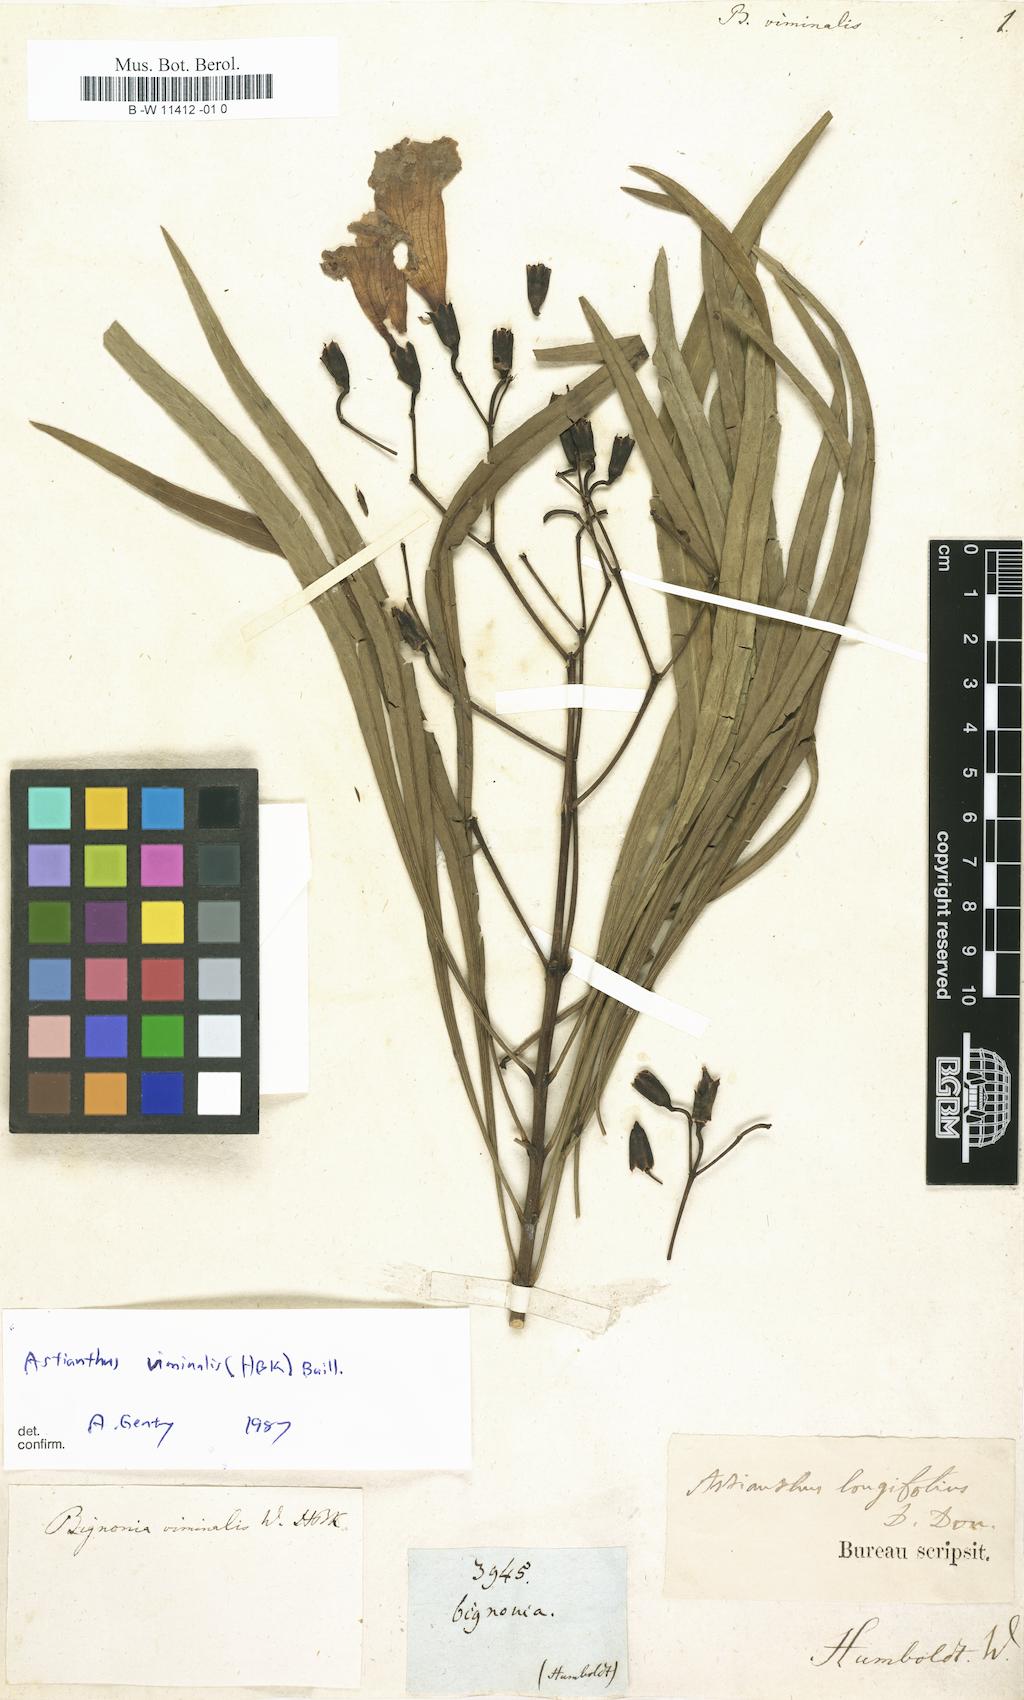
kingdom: Plantae
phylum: Tracheophyta
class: Magnoliopsida
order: Lamiales
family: Bignoniaceae
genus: Astianthus
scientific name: Astianthus viminalis
